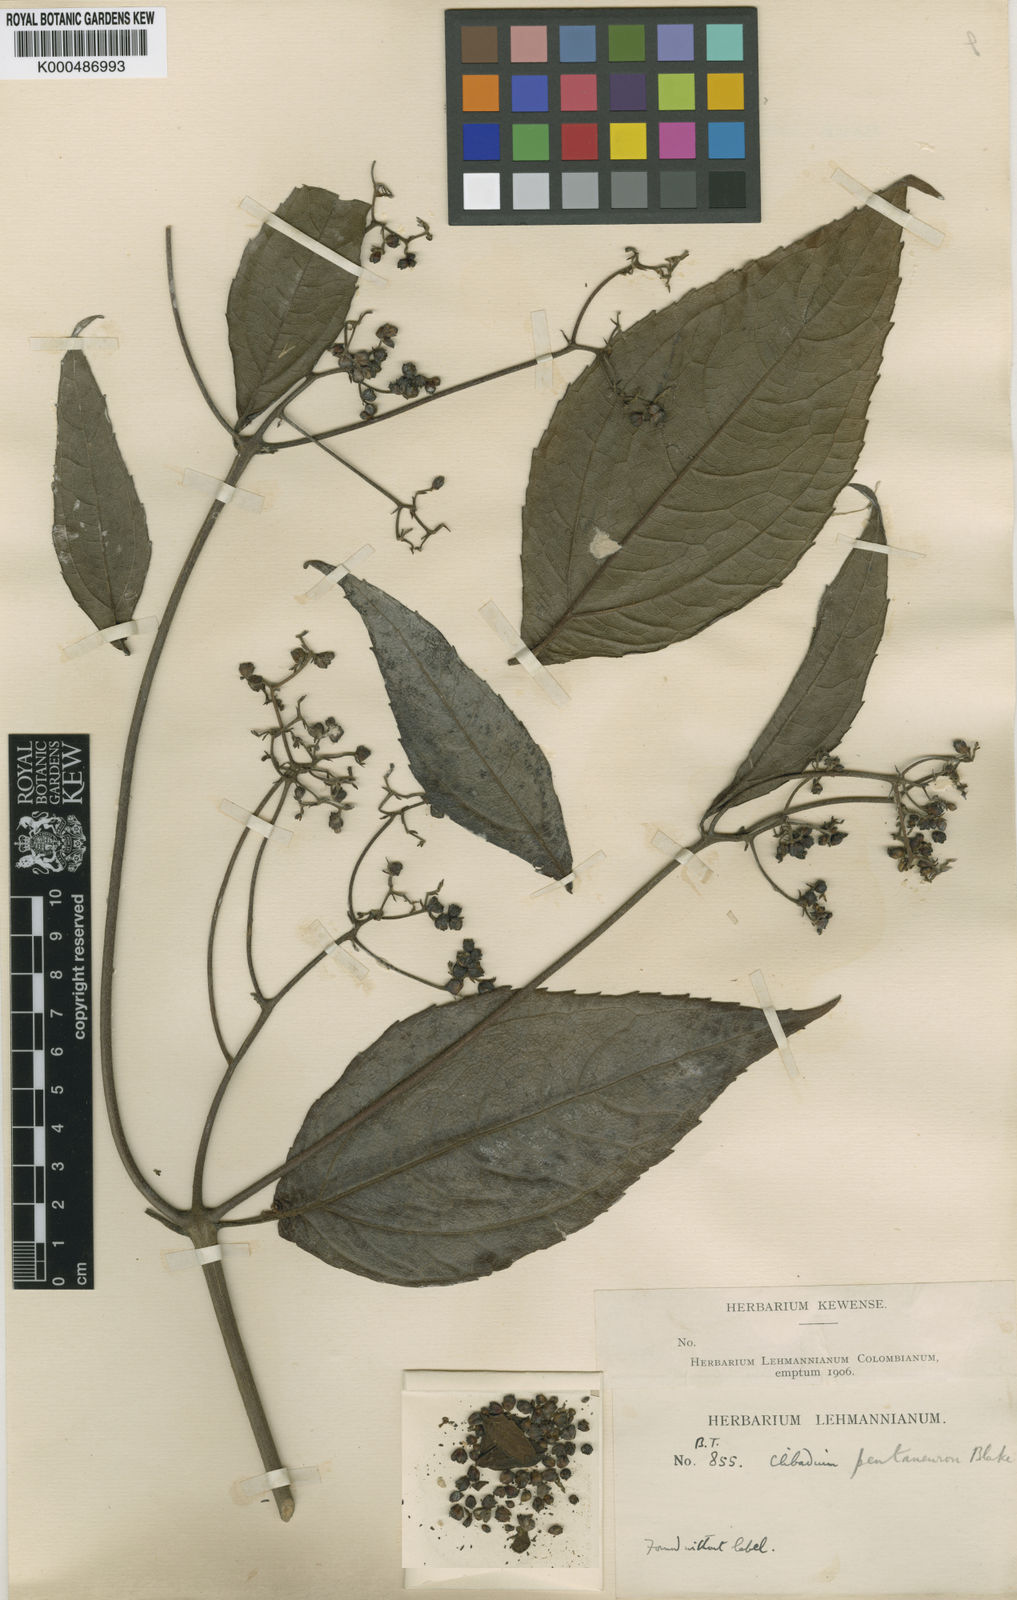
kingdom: Plantae
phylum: Tracheophyta
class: Magnoliopsida
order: Asterales
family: Asteraceae
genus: Clibadium
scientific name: Clibadium pentaneuron
